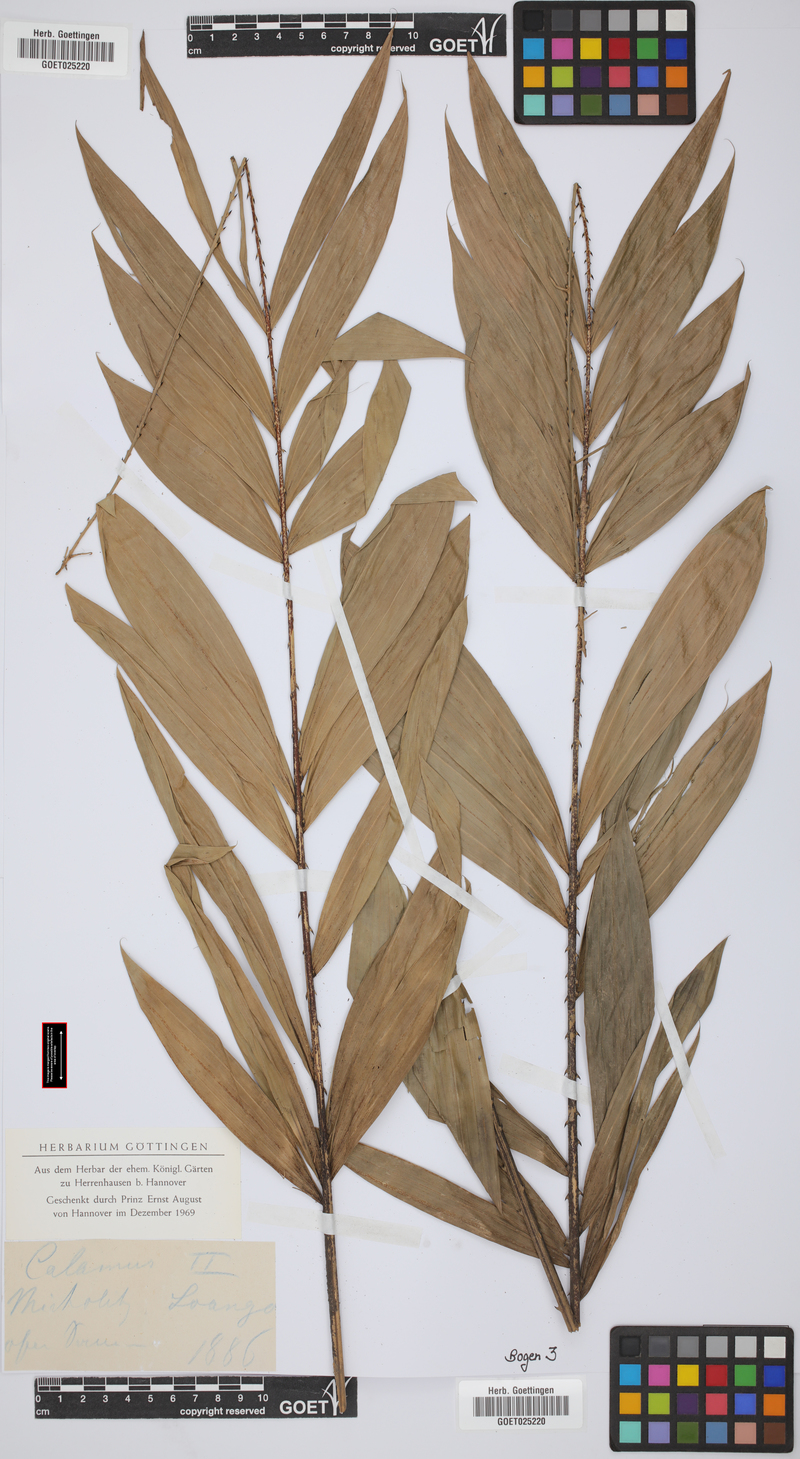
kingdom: Plantae
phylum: Tracheophyta
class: Liliopsida
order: Arecales
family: Arecaceae
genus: Calamus
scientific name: Calamus
